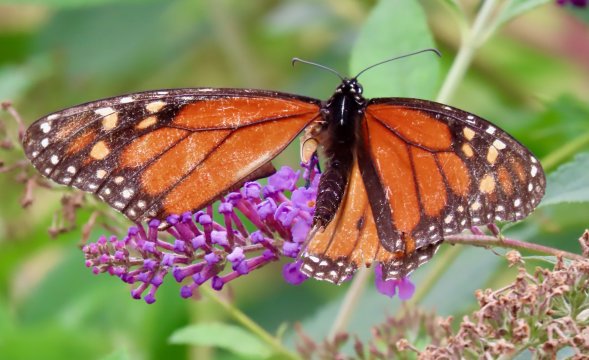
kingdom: Animalia
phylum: Arthropoda
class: Insecta
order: Lepidoptera
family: Nymphalidae
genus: Danaus
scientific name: Danaus plexippus
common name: Monarch
